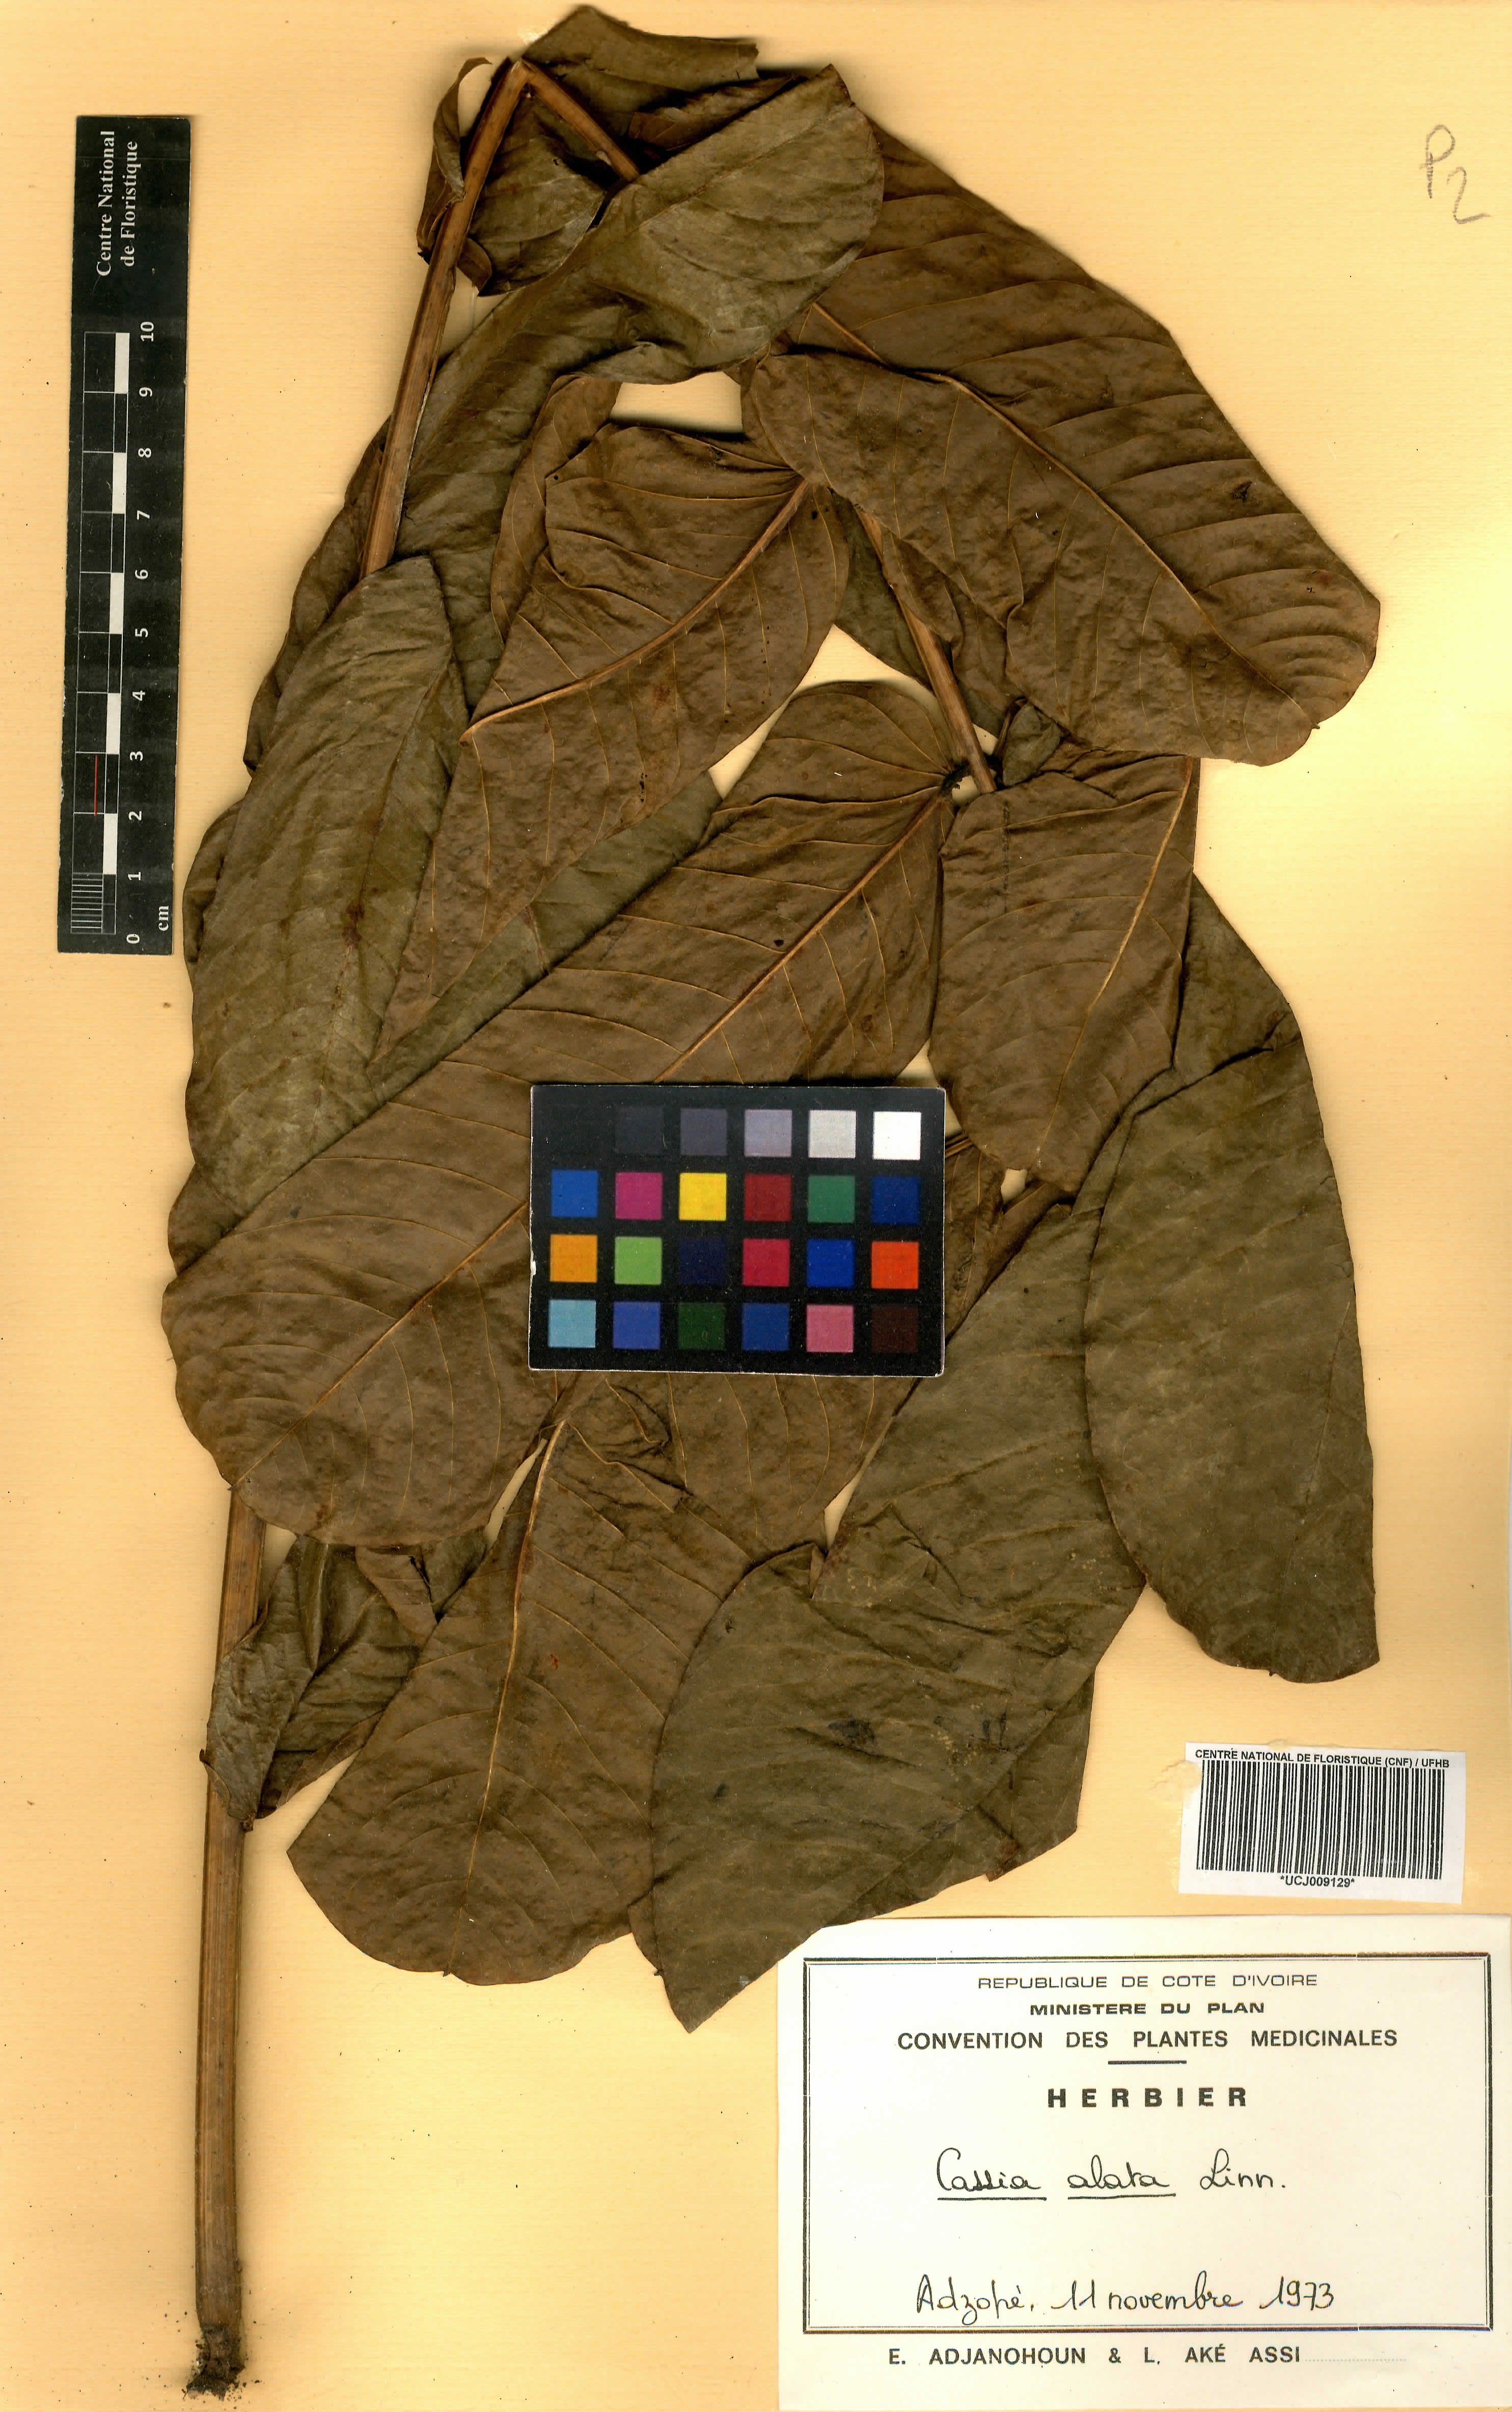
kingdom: Plantae
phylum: Tracheophyta
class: Magnoliopsida
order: Fabales
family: Fabaceae
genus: Senna
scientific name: Senna alata
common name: Emperor's candlesticks
